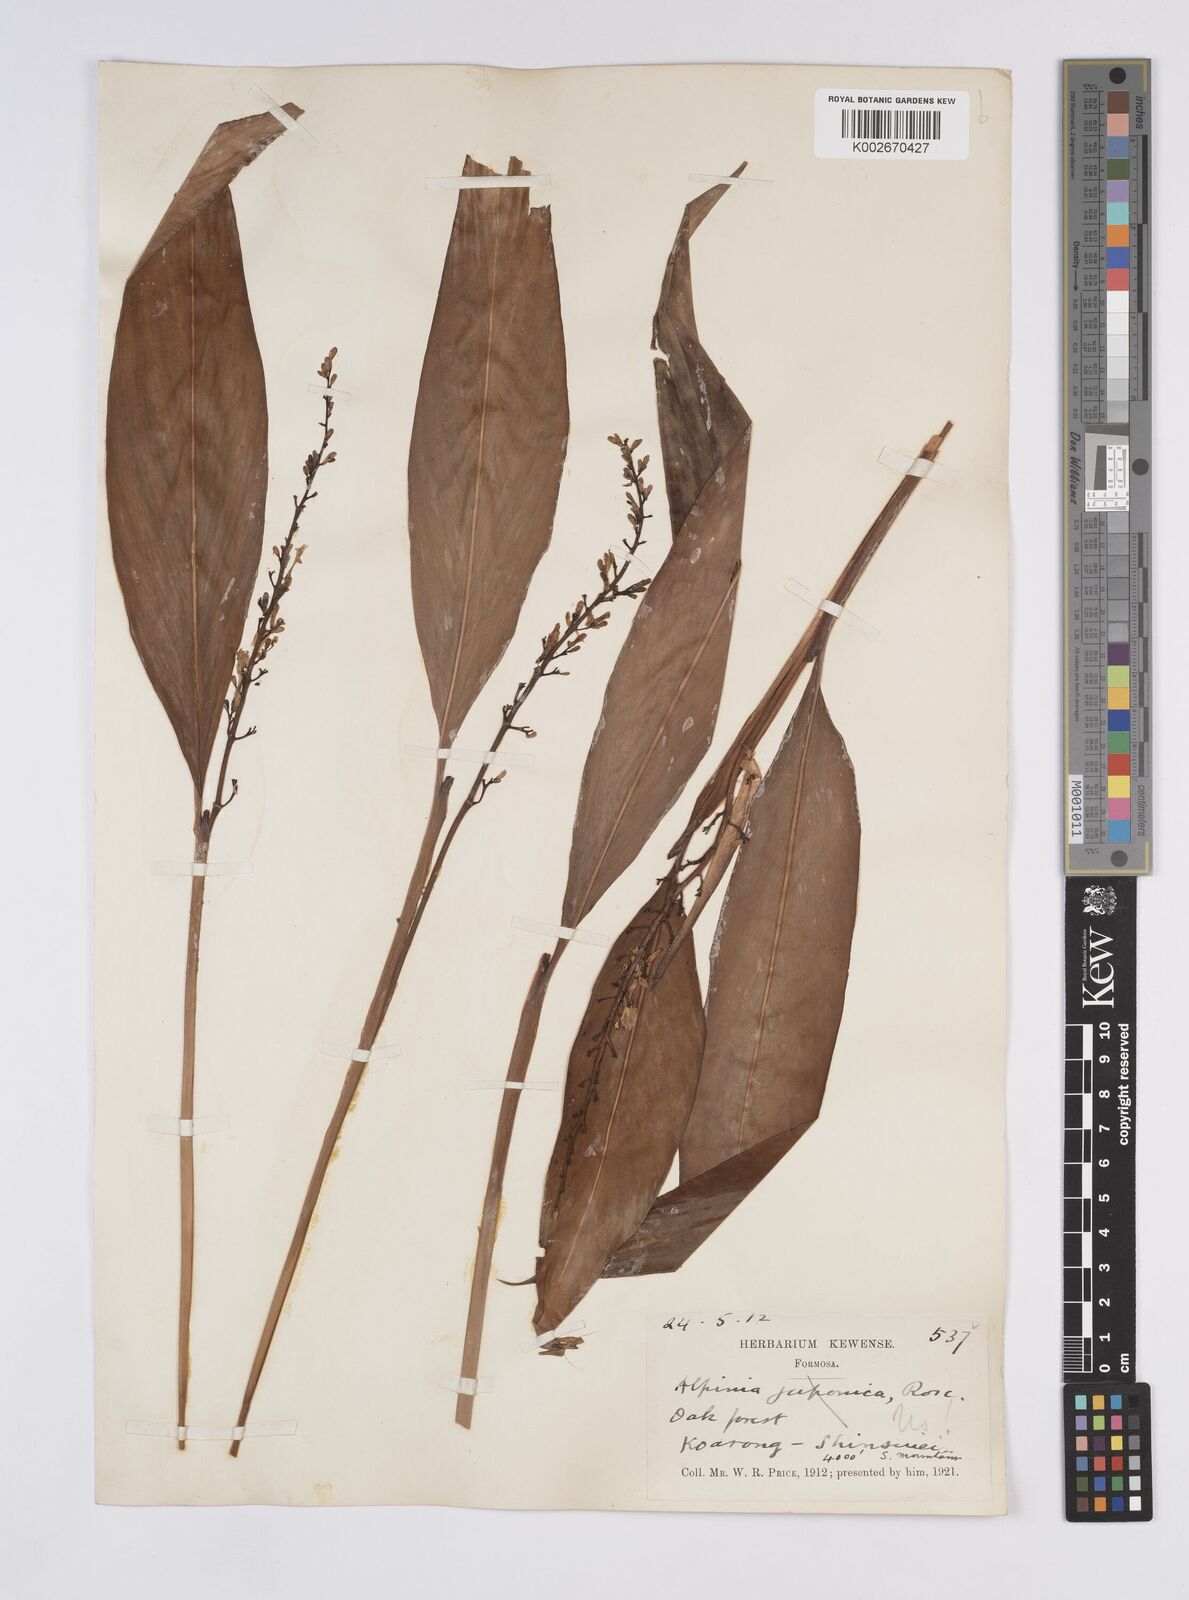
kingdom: Plantae
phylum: Tracheophyta
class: Liliopsida
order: Zingiberales
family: Zingiberaceae
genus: Alpinia
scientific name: Alpinia chinensis
